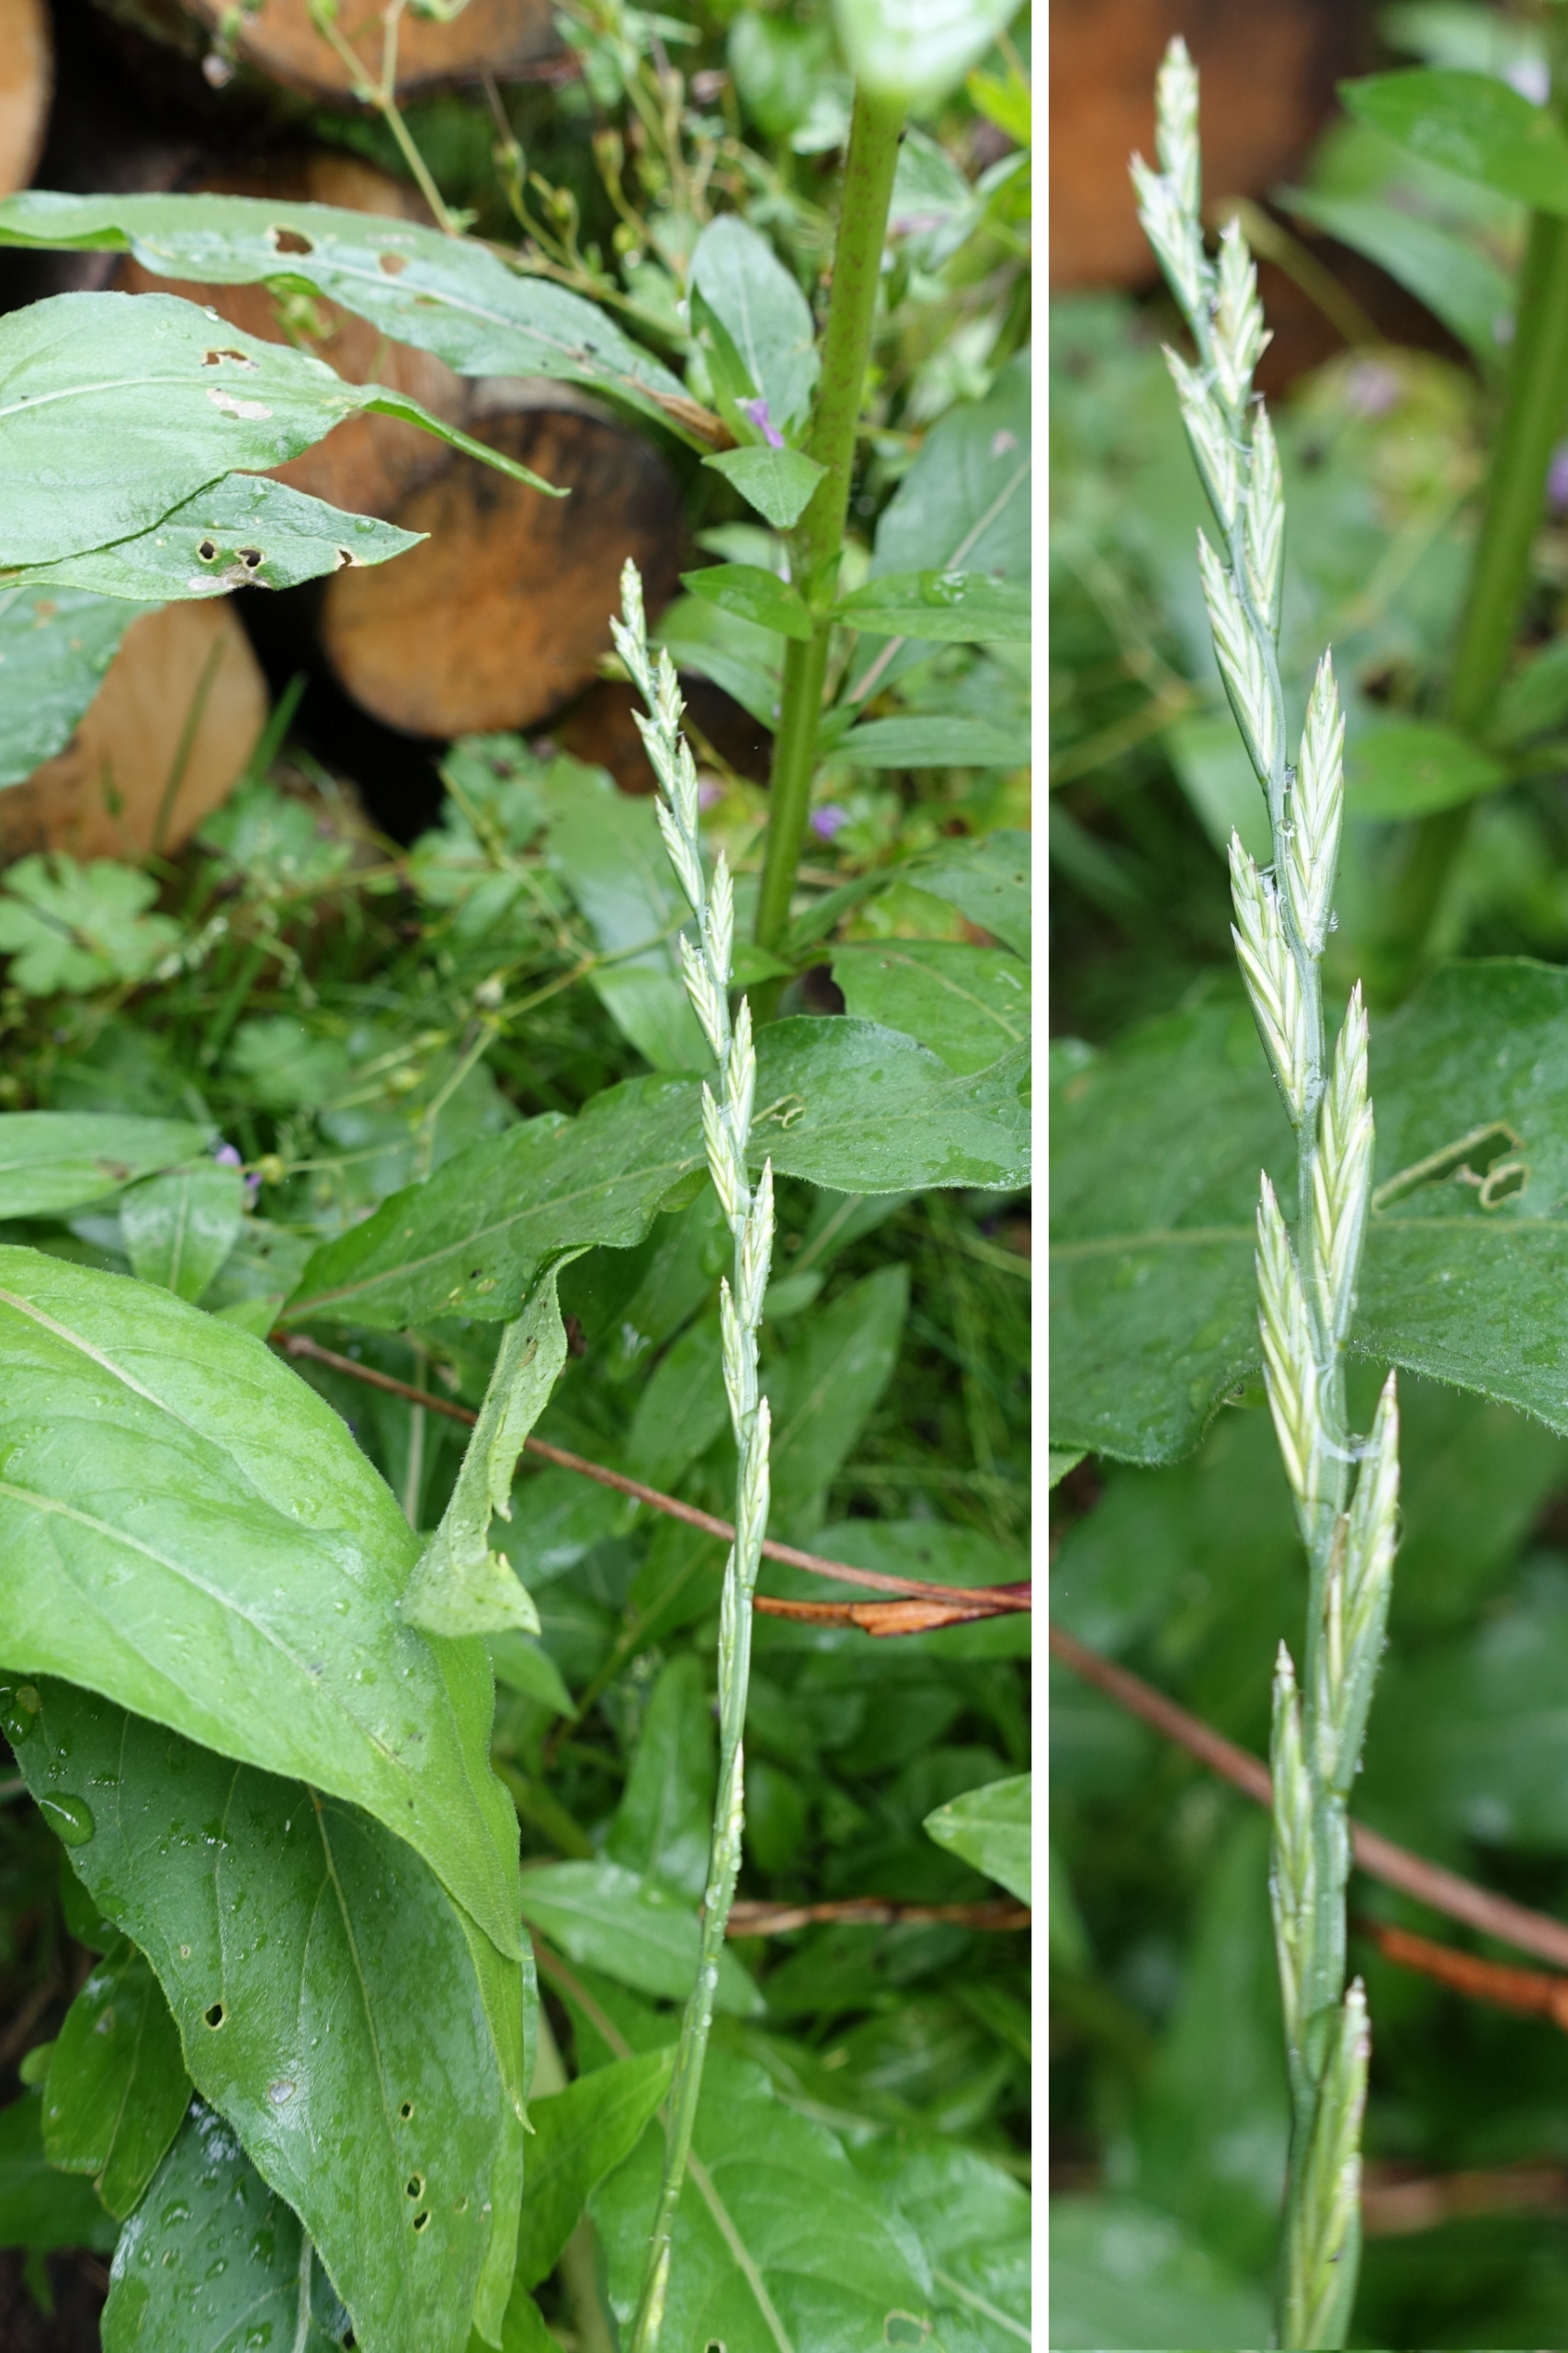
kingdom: Plantae
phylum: Tracheophyta
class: Liliopsida
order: Poales
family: Poaceae
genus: Lolium
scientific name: Lolium perenne
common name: Almindelig rajgræs
